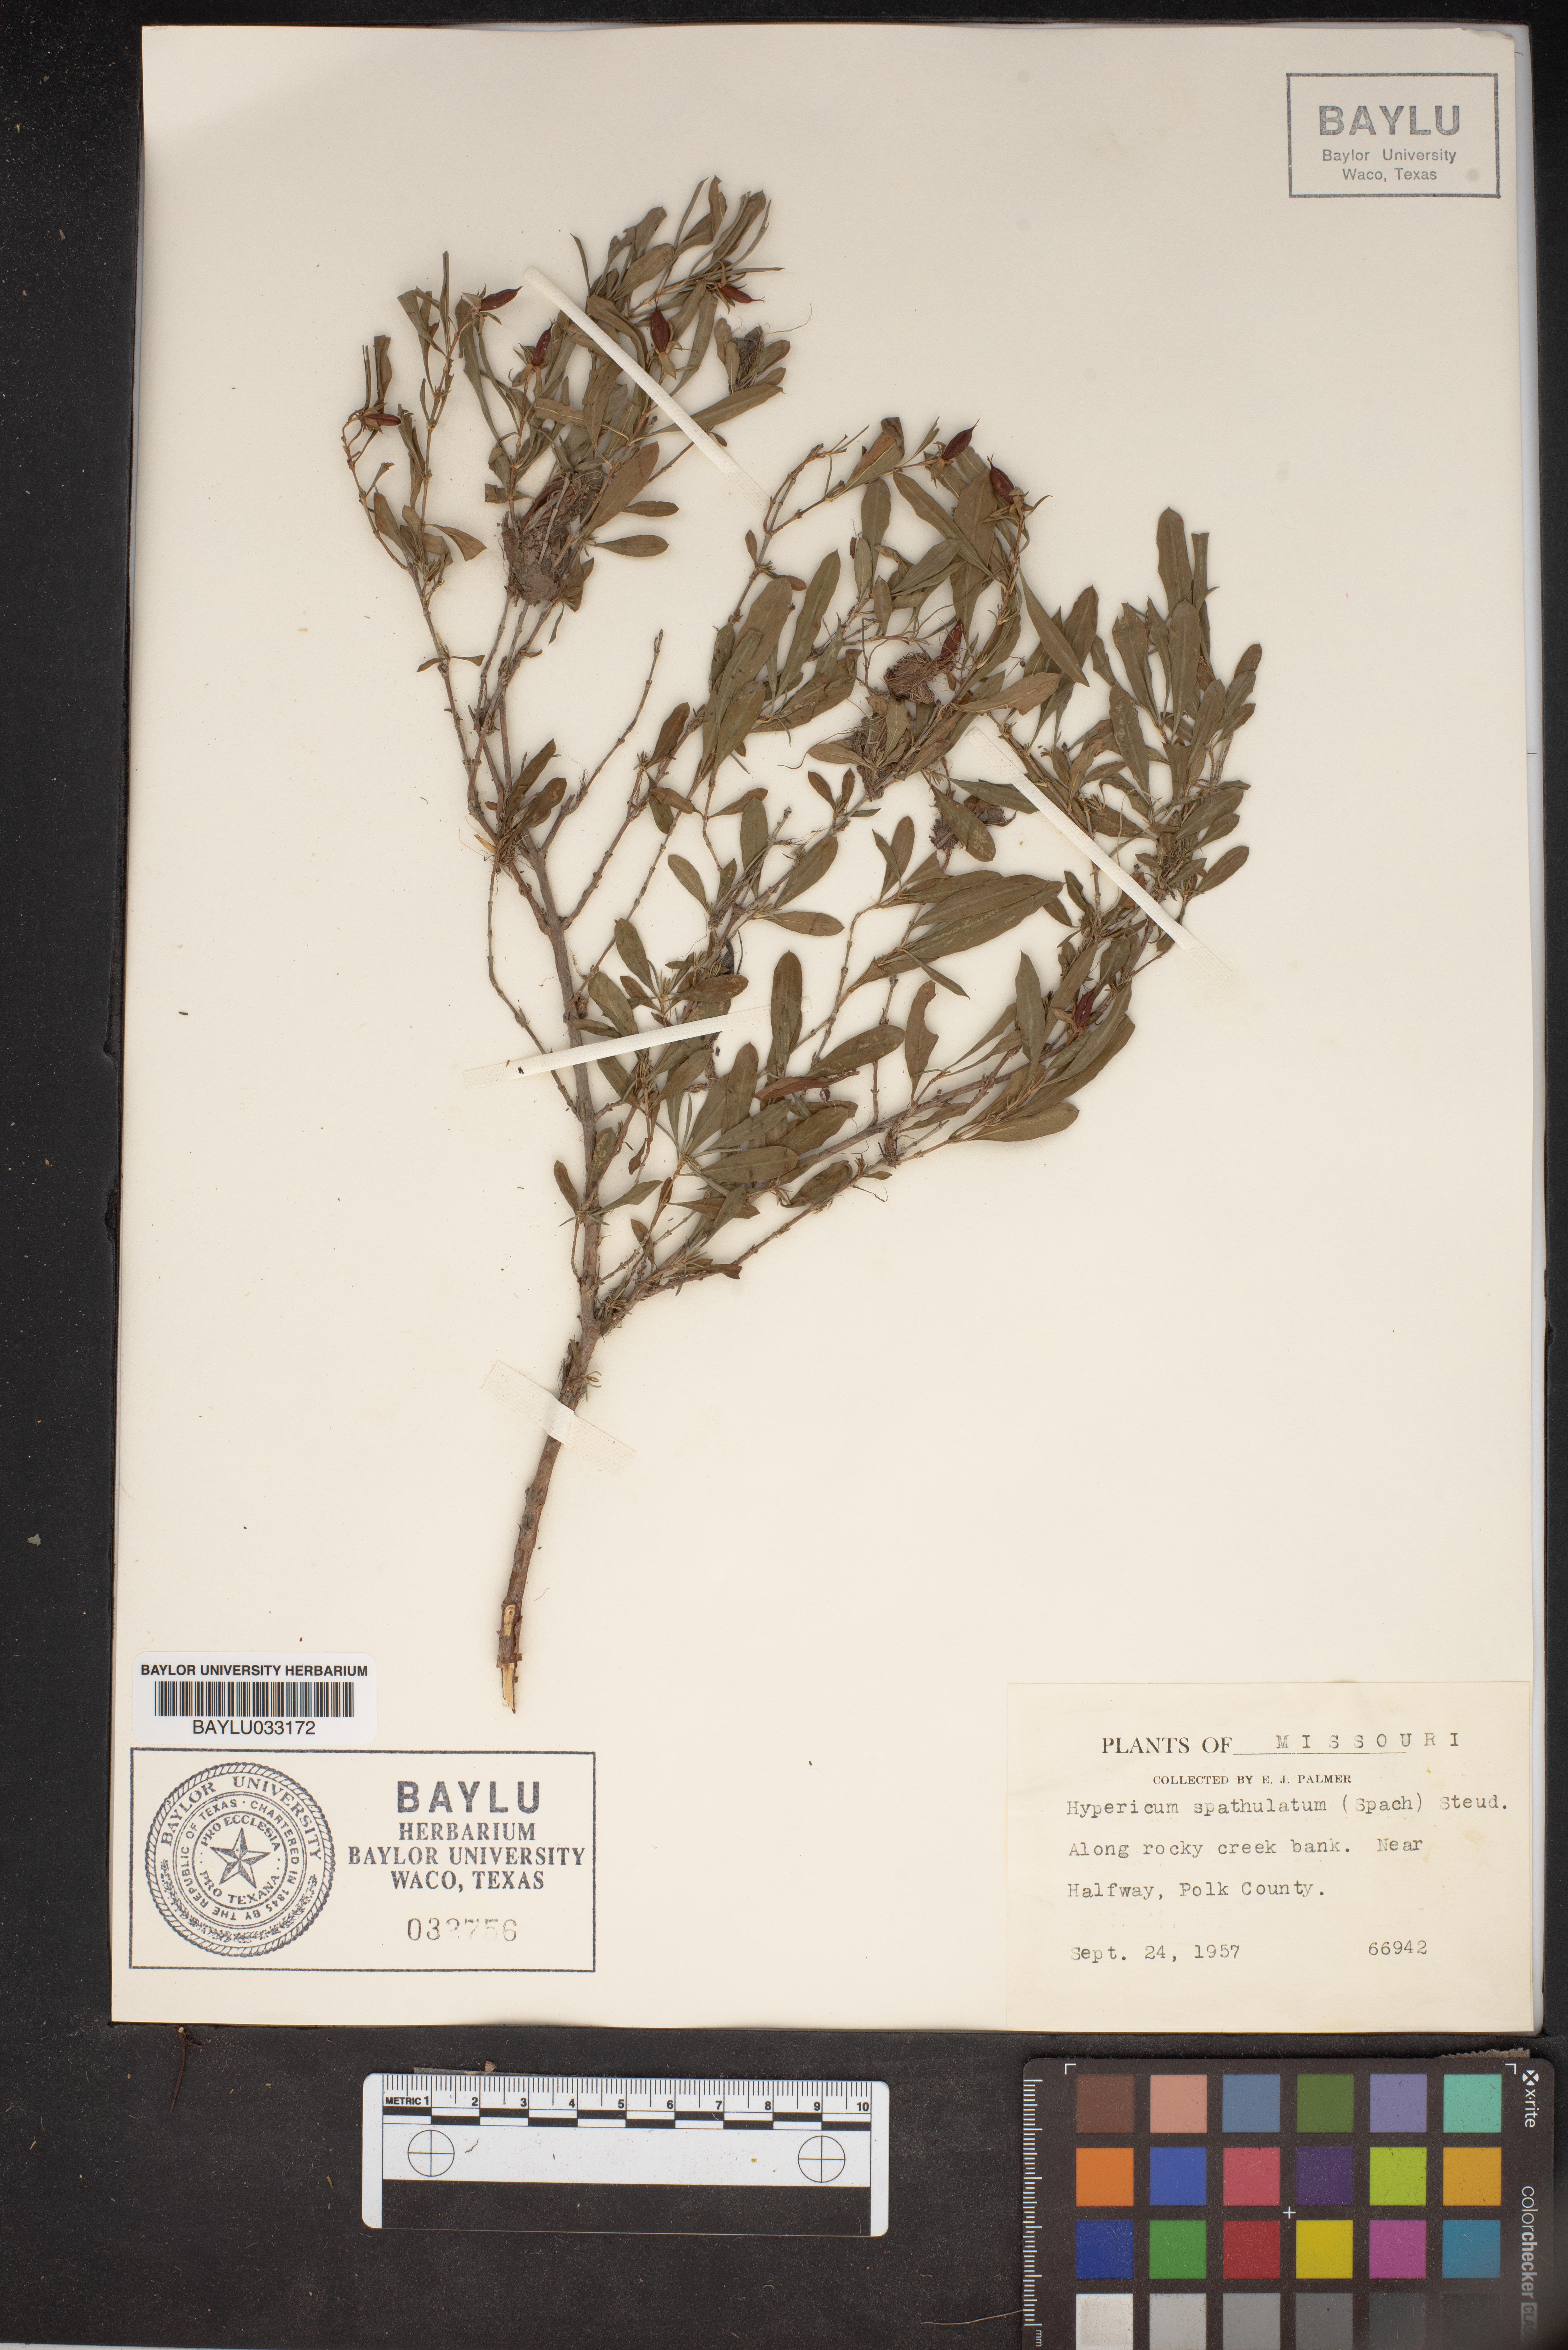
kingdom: Plantae
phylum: Tracheophyta
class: Magnoliopsida
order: Malpighiales
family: Hypericaceae
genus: Hypericum
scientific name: Hypericum
